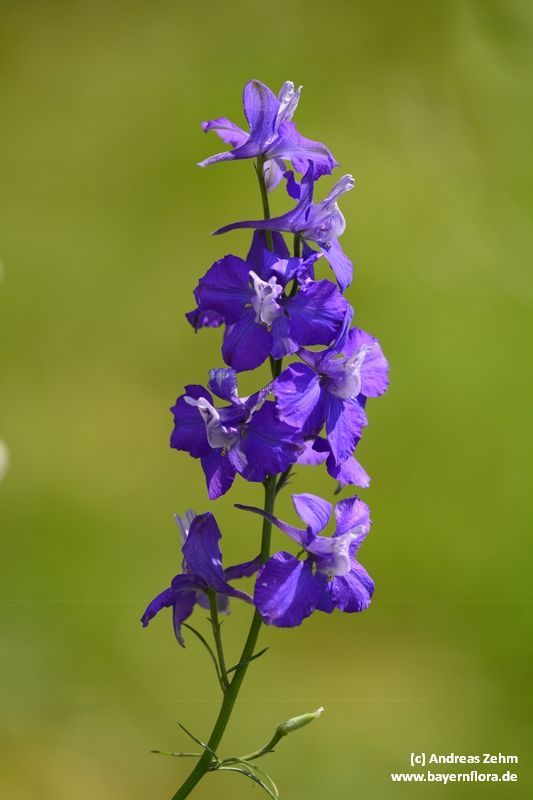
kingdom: Plantae
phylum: Tracheophyta
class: Magnoliopsida
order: Ranunculales
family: Ranunculaceae
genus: Delphinium
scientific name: Delphinium ajacis
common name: Doubtful knight's-spur
